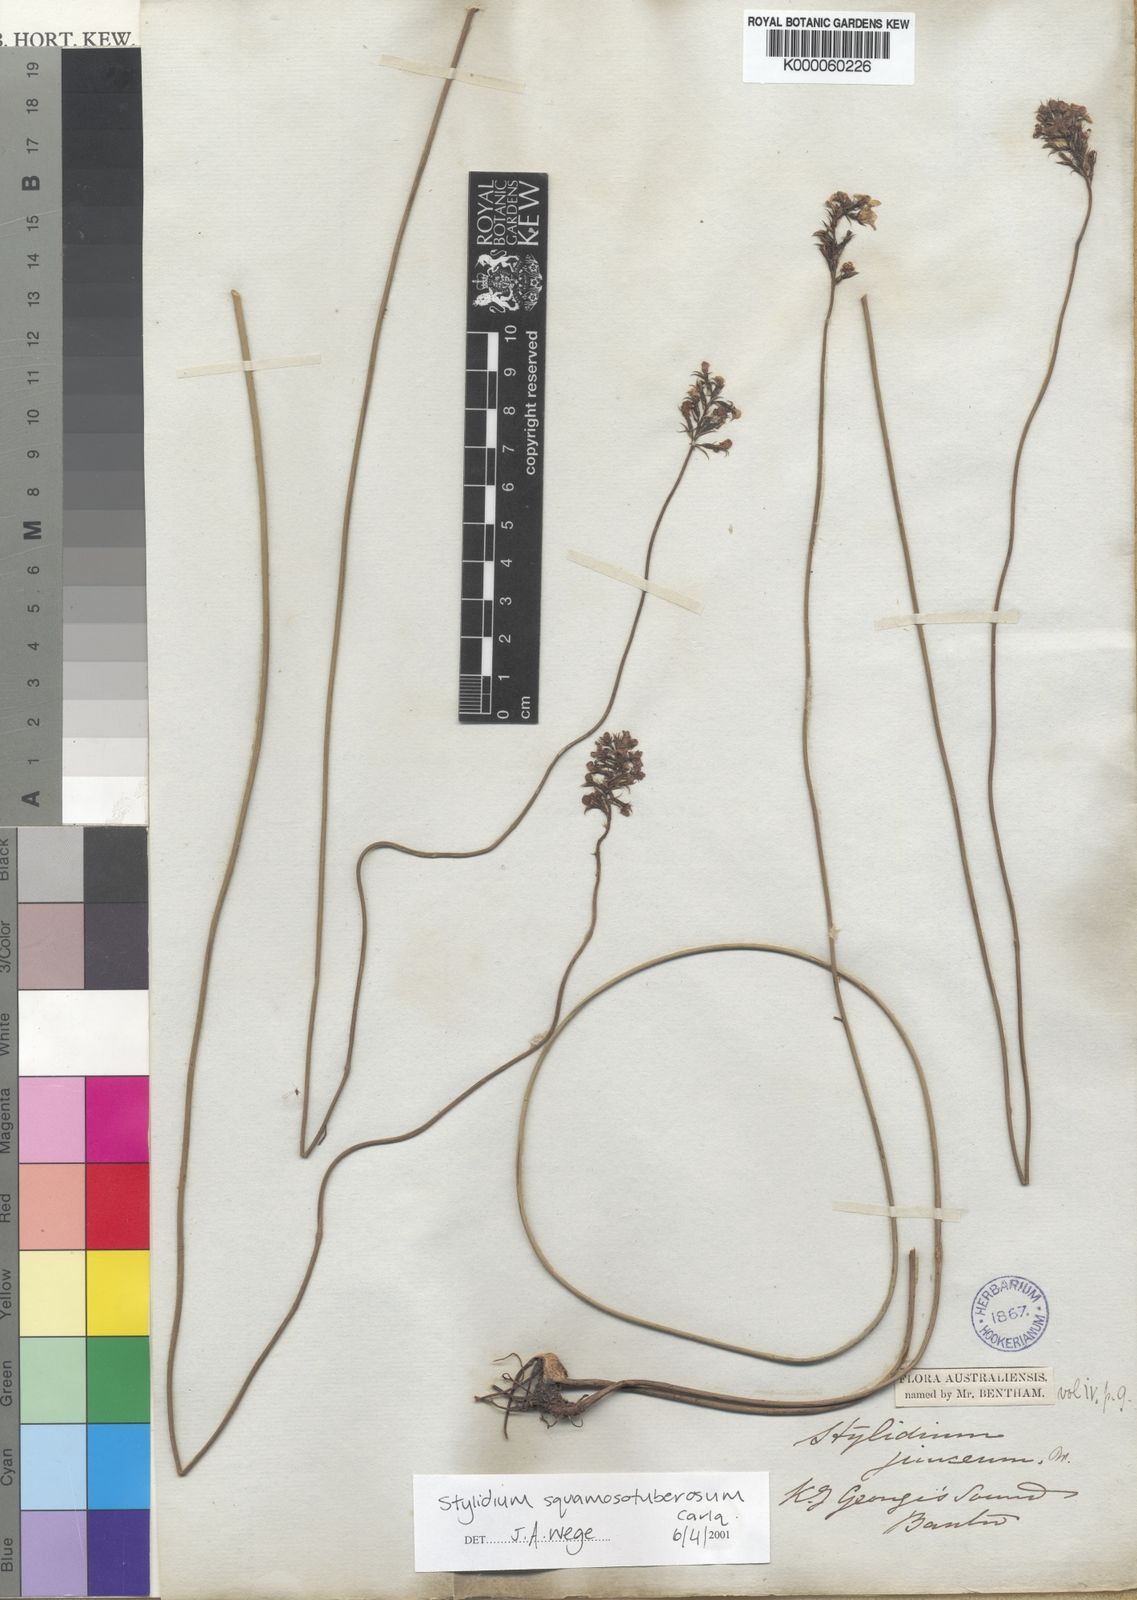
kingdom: Plantae
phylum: Tracheophyta
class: Magnoliopsida
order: Asterales
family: Stylidiaceae
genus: Stylidium
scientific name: Stylidium
